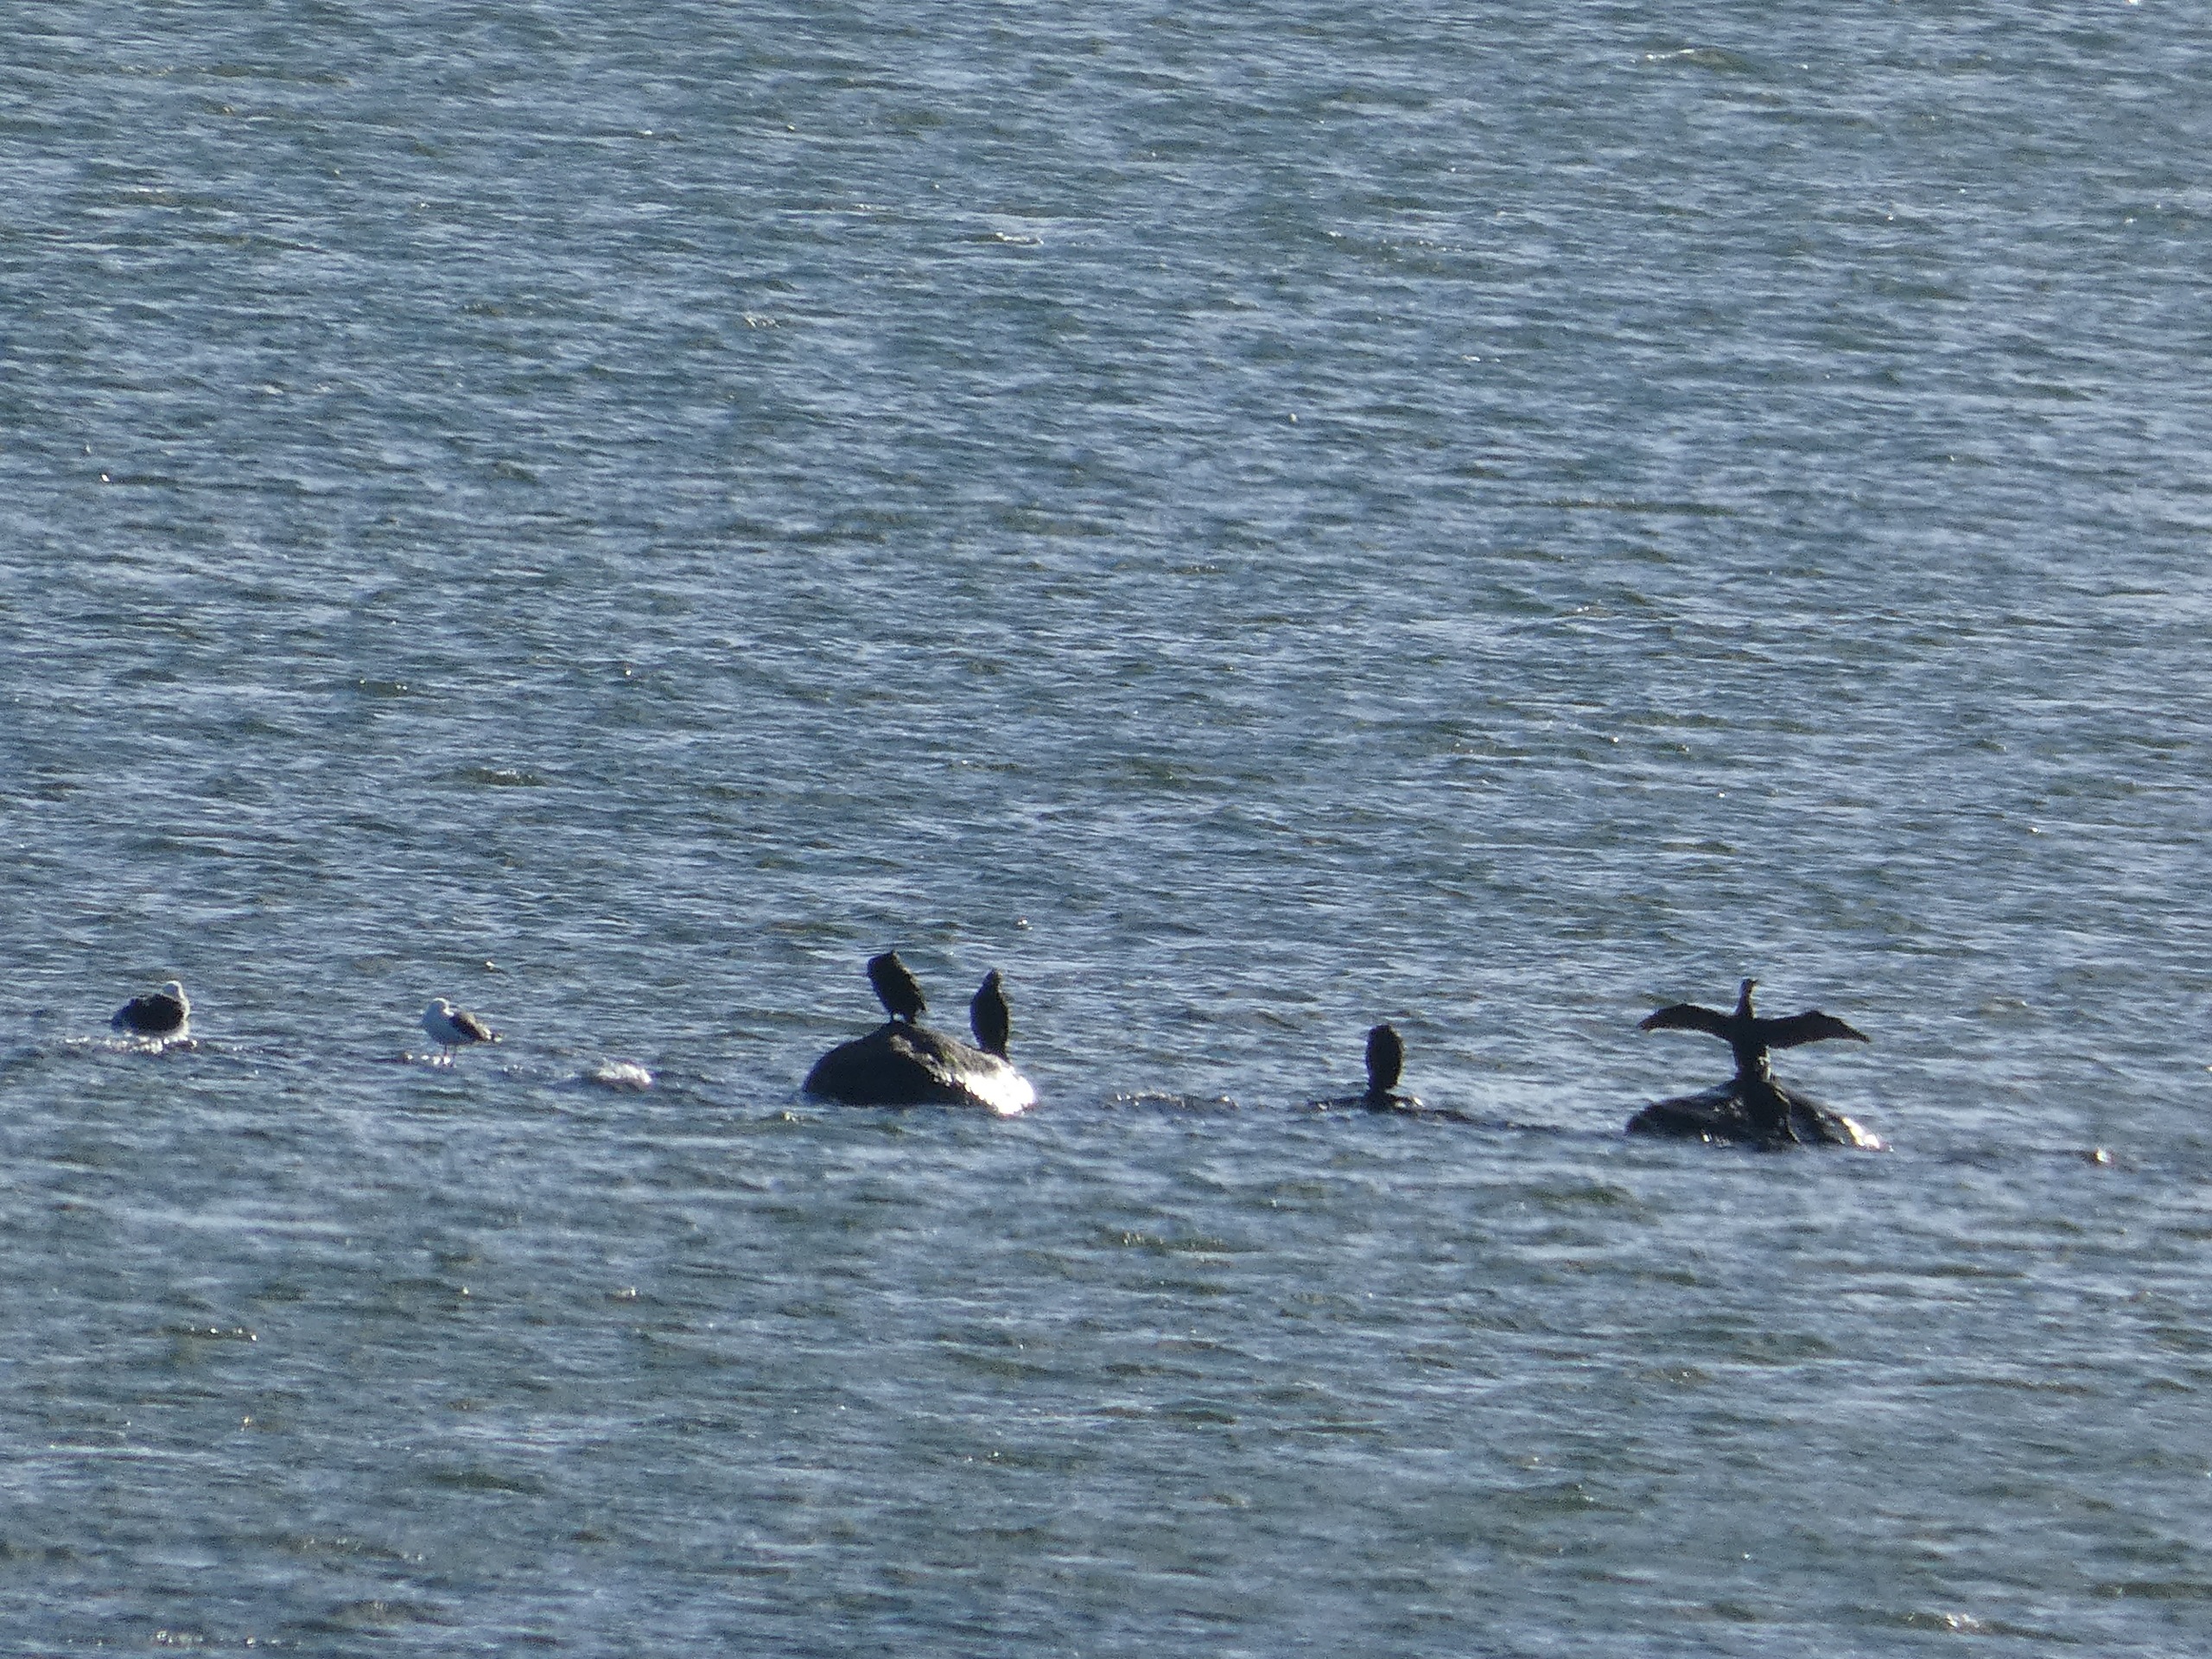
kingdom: Animalia
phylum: Chordata
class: Aves
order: Suliformes
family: Phalacrocoracidae
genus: Phalacrocorax
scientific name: Phalacrocorax carbo
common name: Skarv
